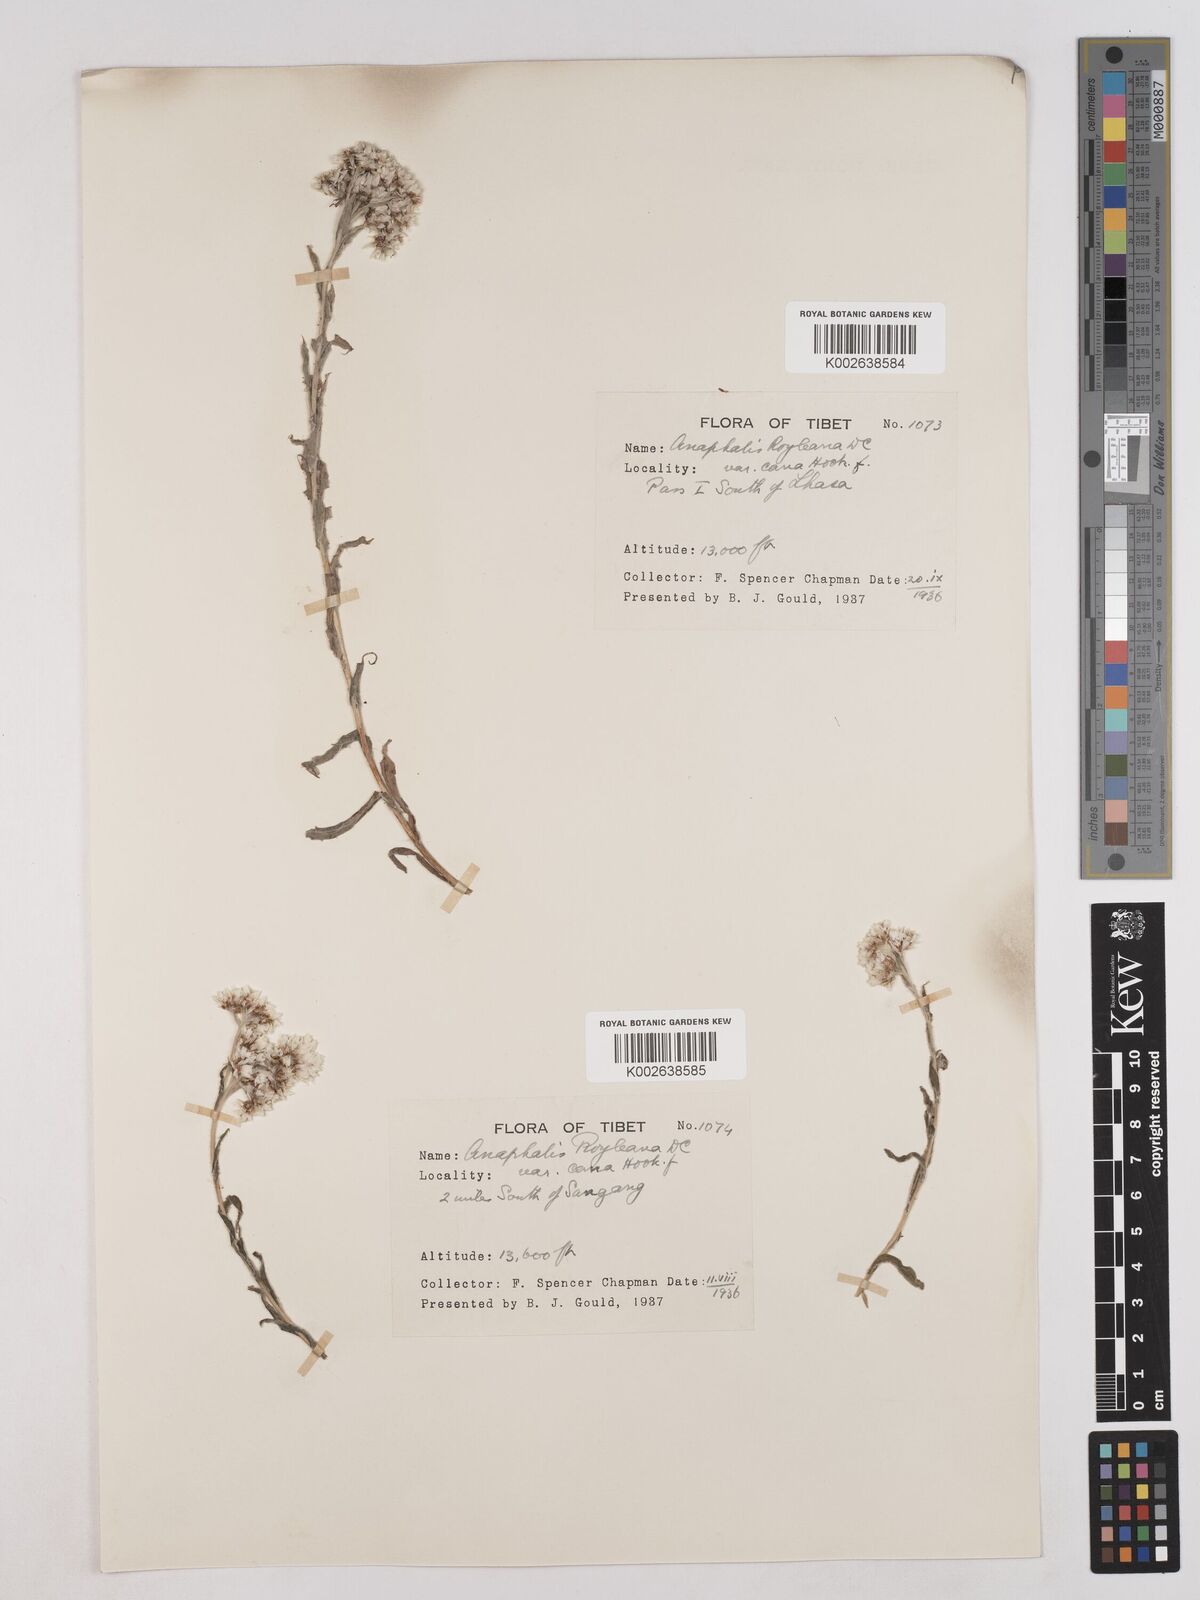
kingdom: Plantae
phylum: Tracheophyta
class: Magnoliopsida
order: Asterales
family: Asteraceae
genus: Anaphalis
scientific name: Anaphalis royleana
